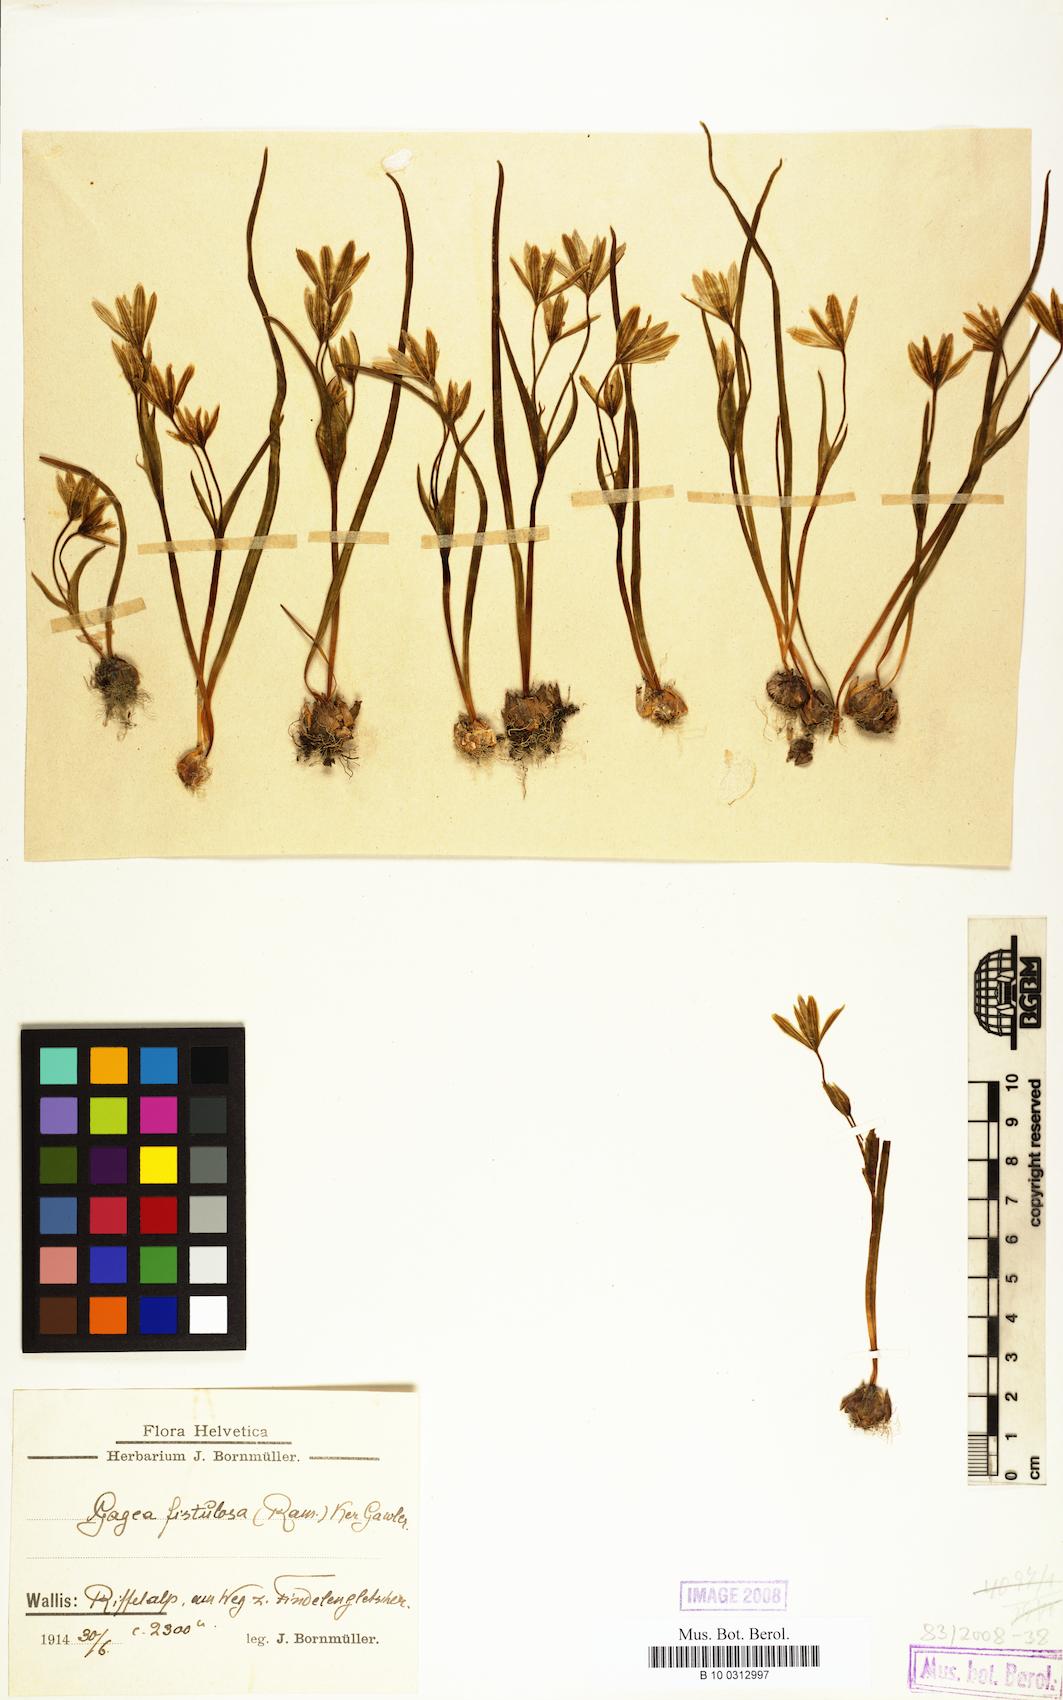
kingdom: Plantae
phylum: Tracheophyta
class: Liliopsida
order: Liliales
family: Liliaceae
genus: Gagea
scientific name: Gagea
